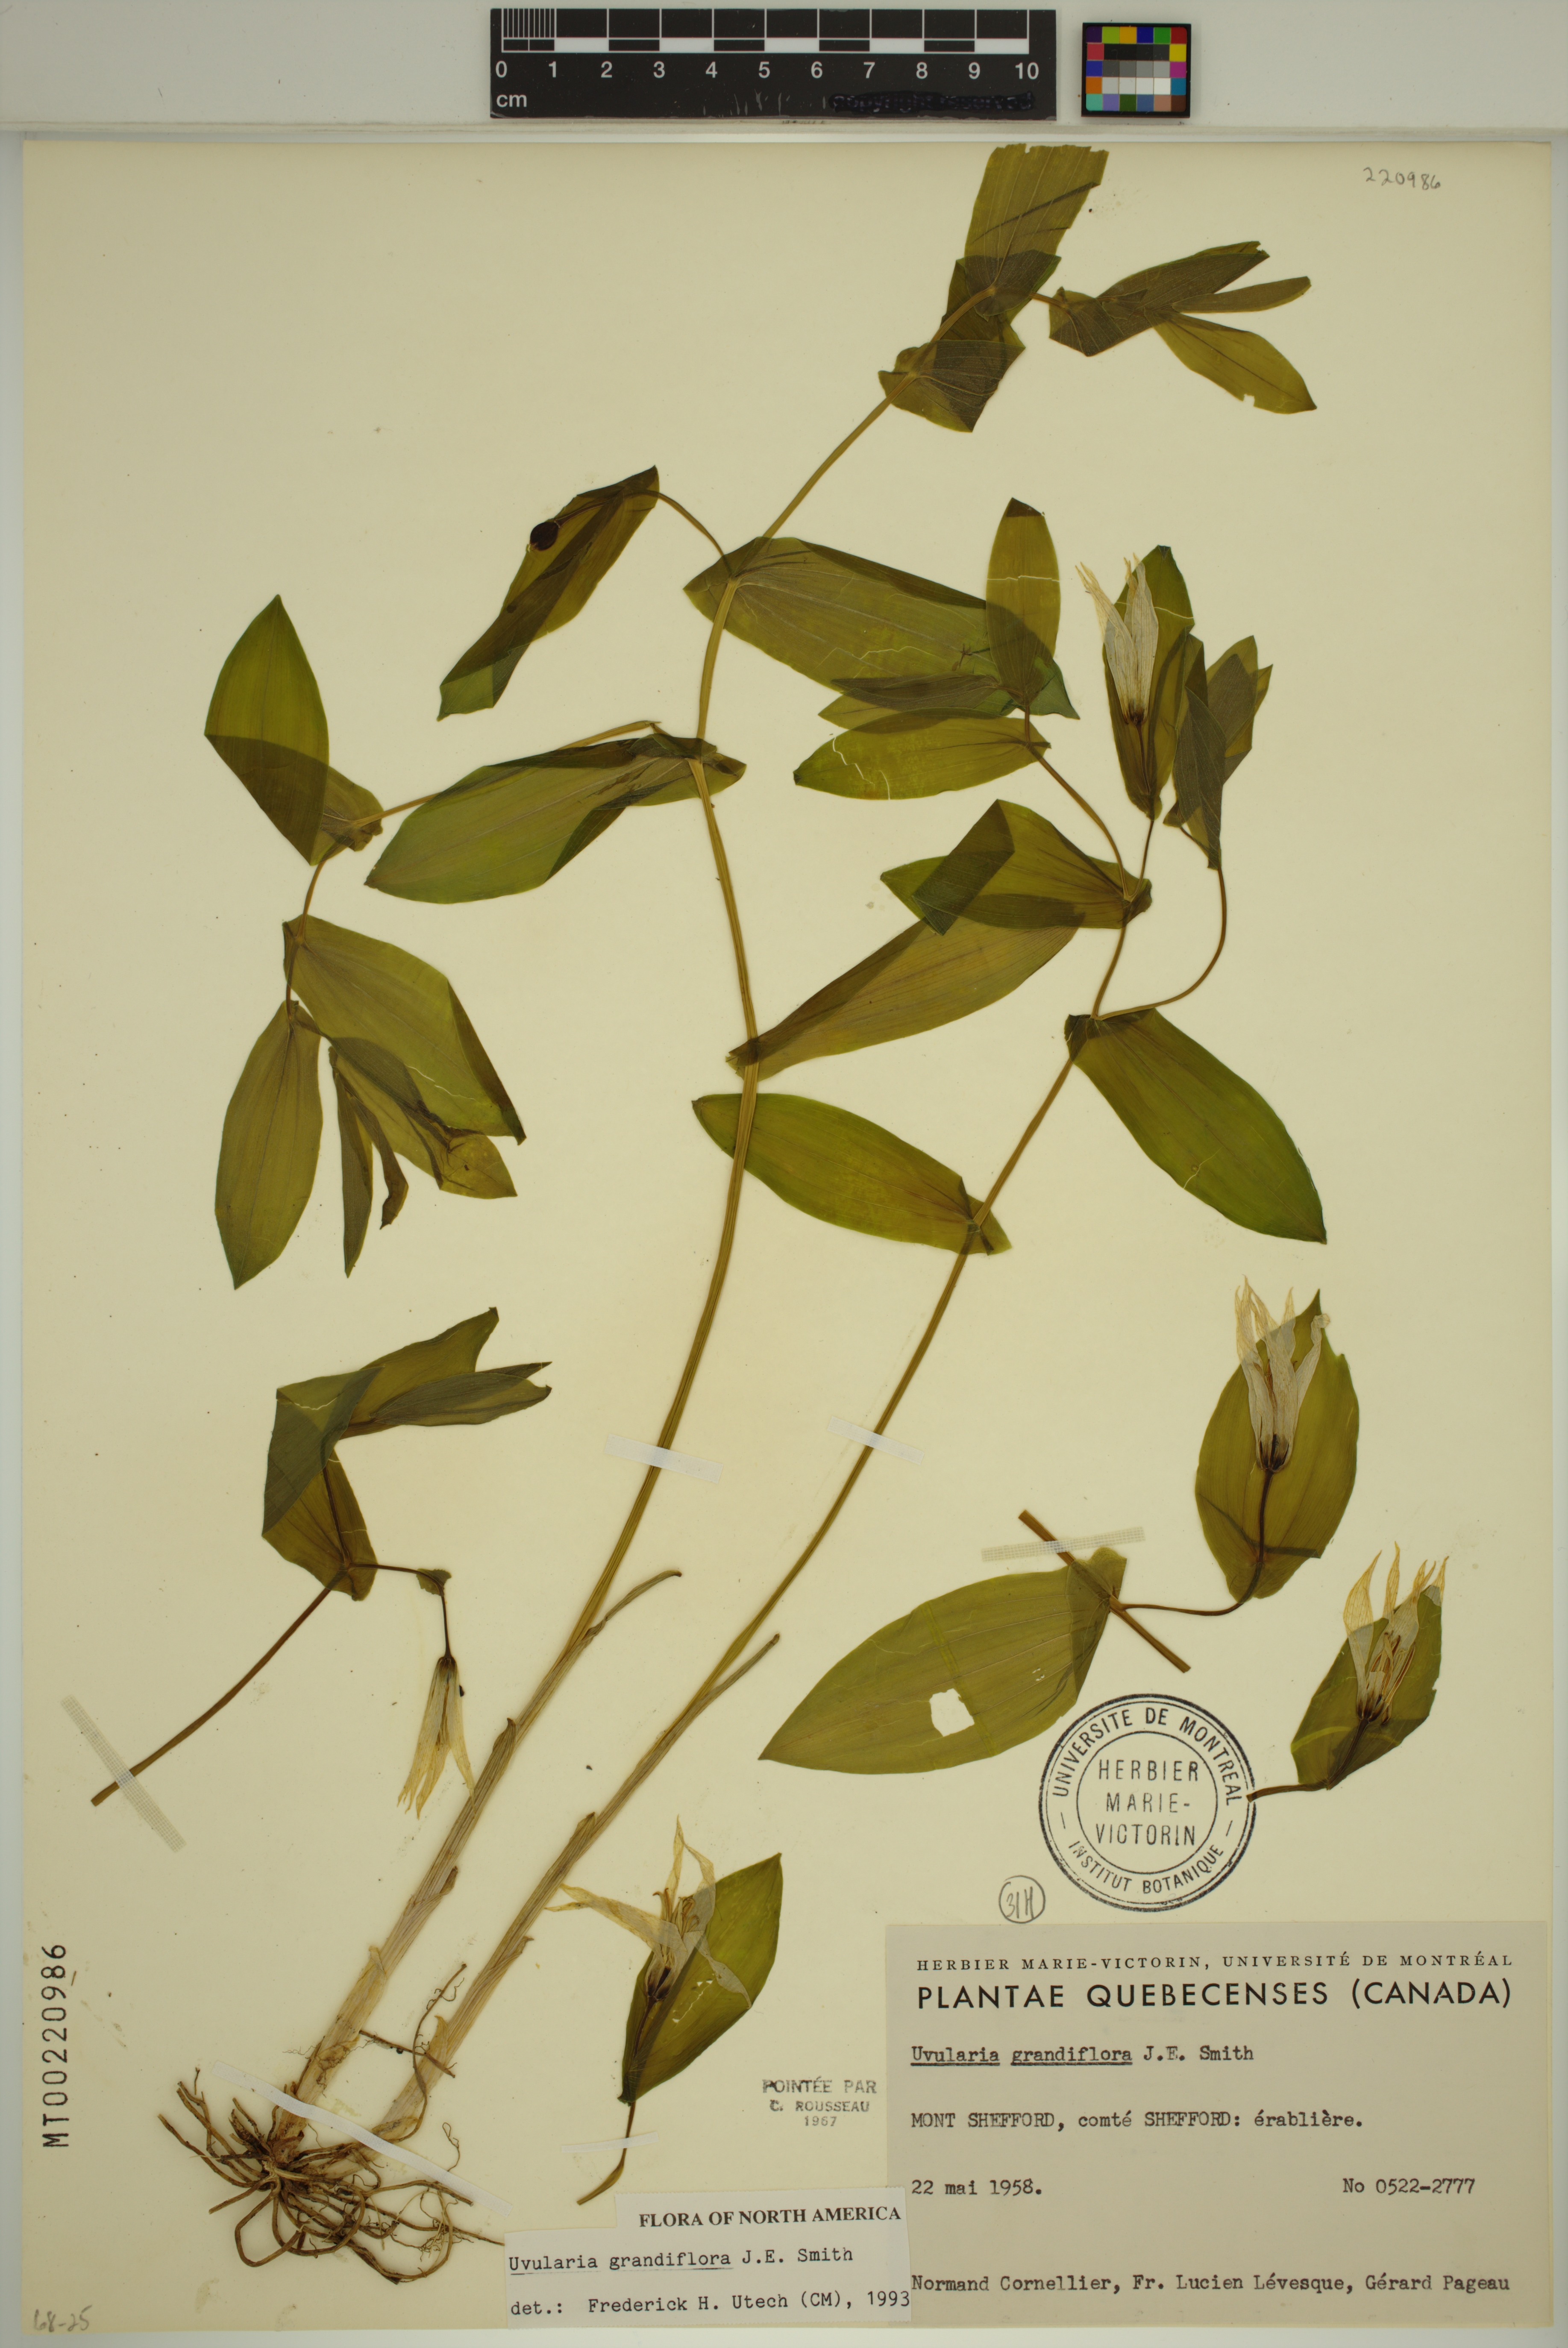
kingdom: Plantae
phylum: Tracheophyta
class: Liliopsida
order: Liliales
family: Colchicaceae
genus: Uvularia
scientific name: Uvularia grandiflora
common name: Bellwort
